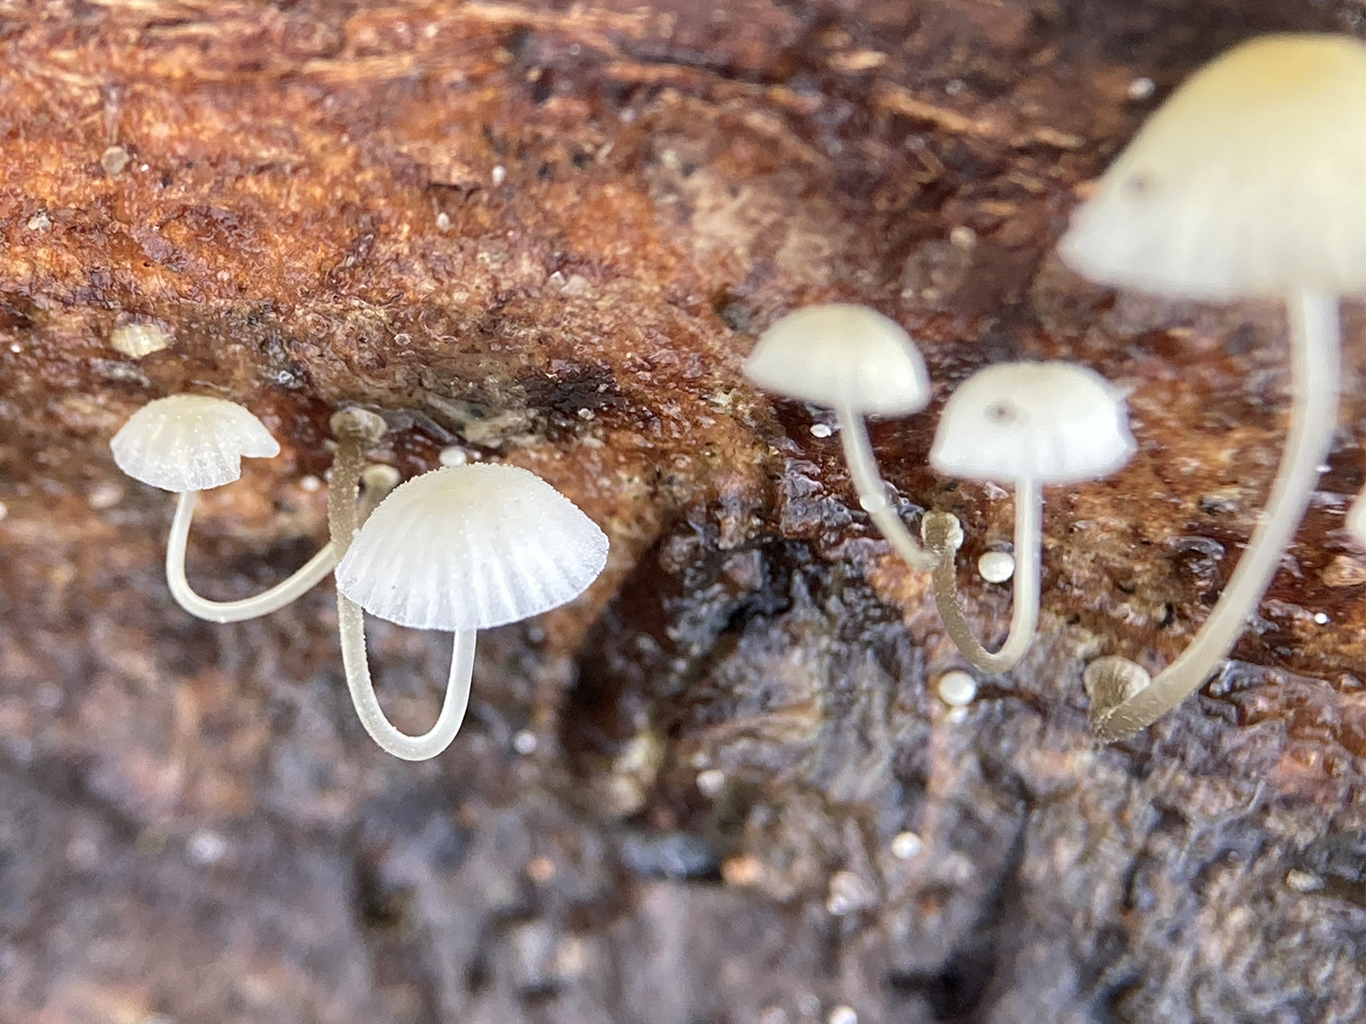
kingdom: Fungi
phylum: Basidiomycota
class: Agaricomycetes
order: Agaricales
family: Mycenaceae
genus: Mycena
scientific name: Mycena tenerrima
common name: pudret huesvamp
